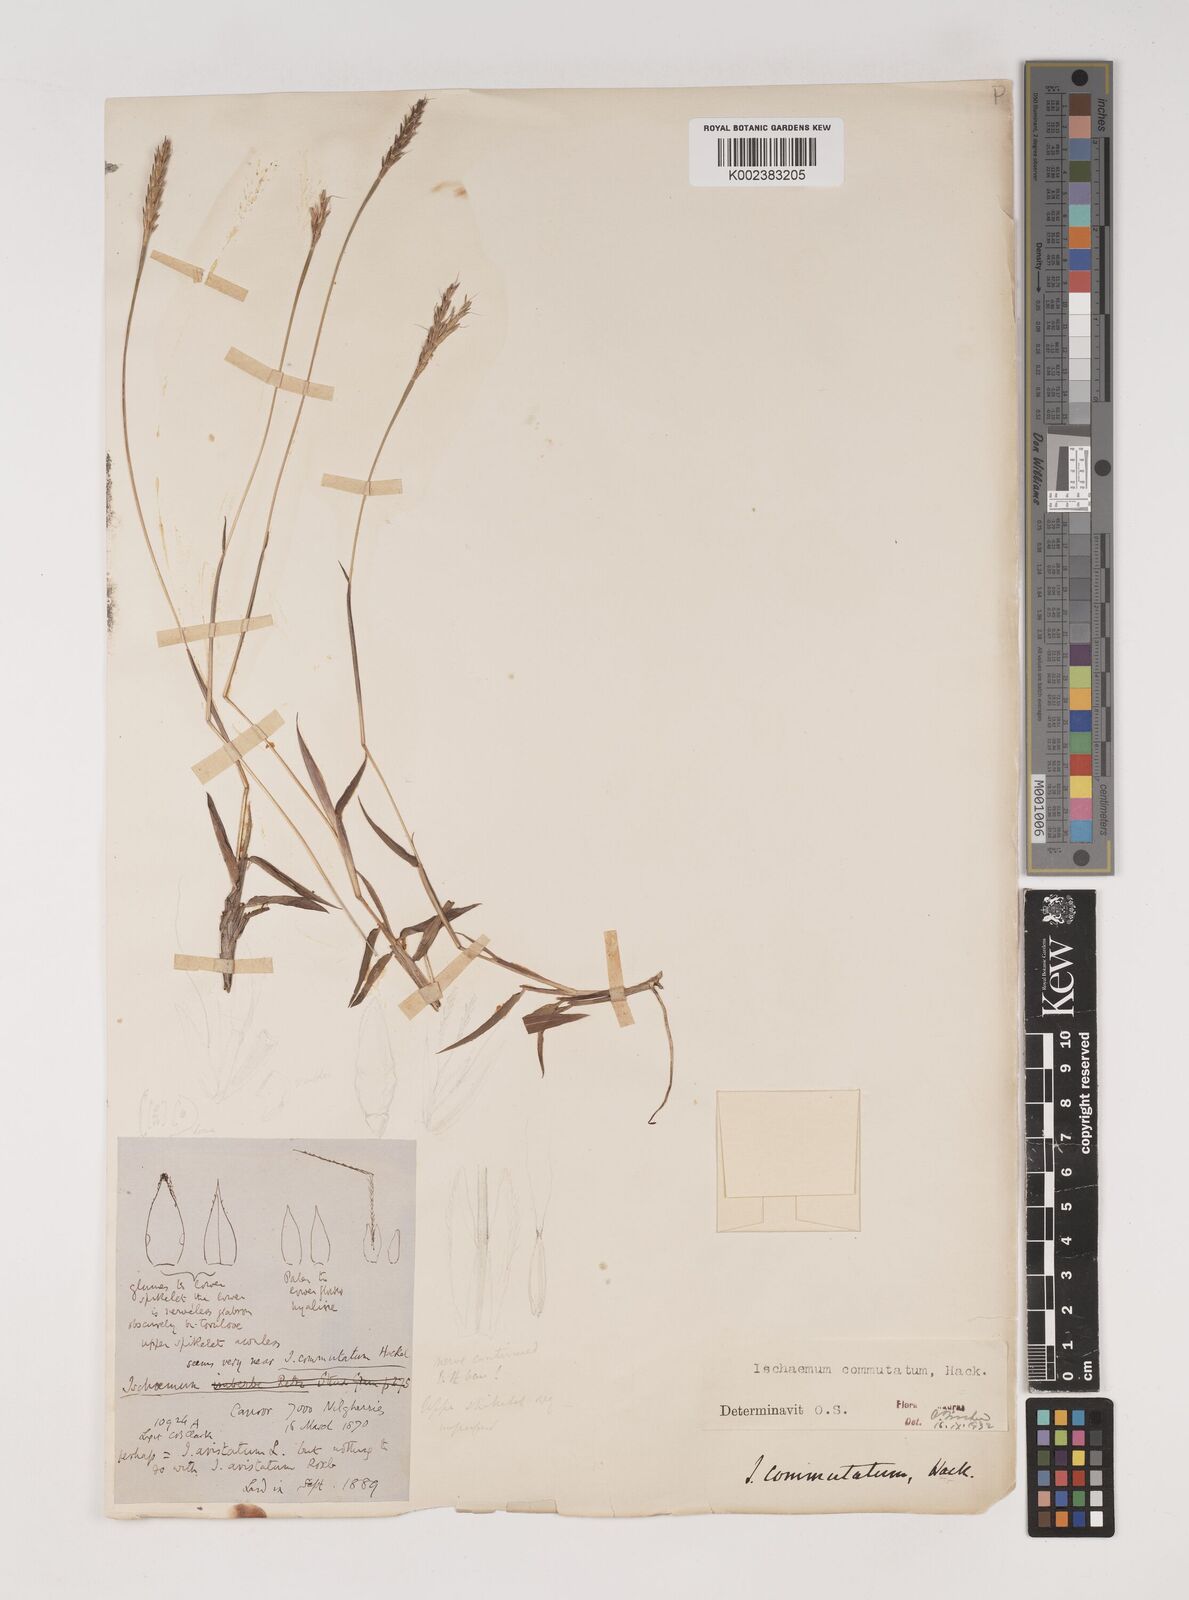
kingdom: Plantae
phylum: Tracheophyta
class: Liliopsida
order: Poales
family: Poaceae
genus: Ischaemum
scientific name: Ischaemum commutatum
